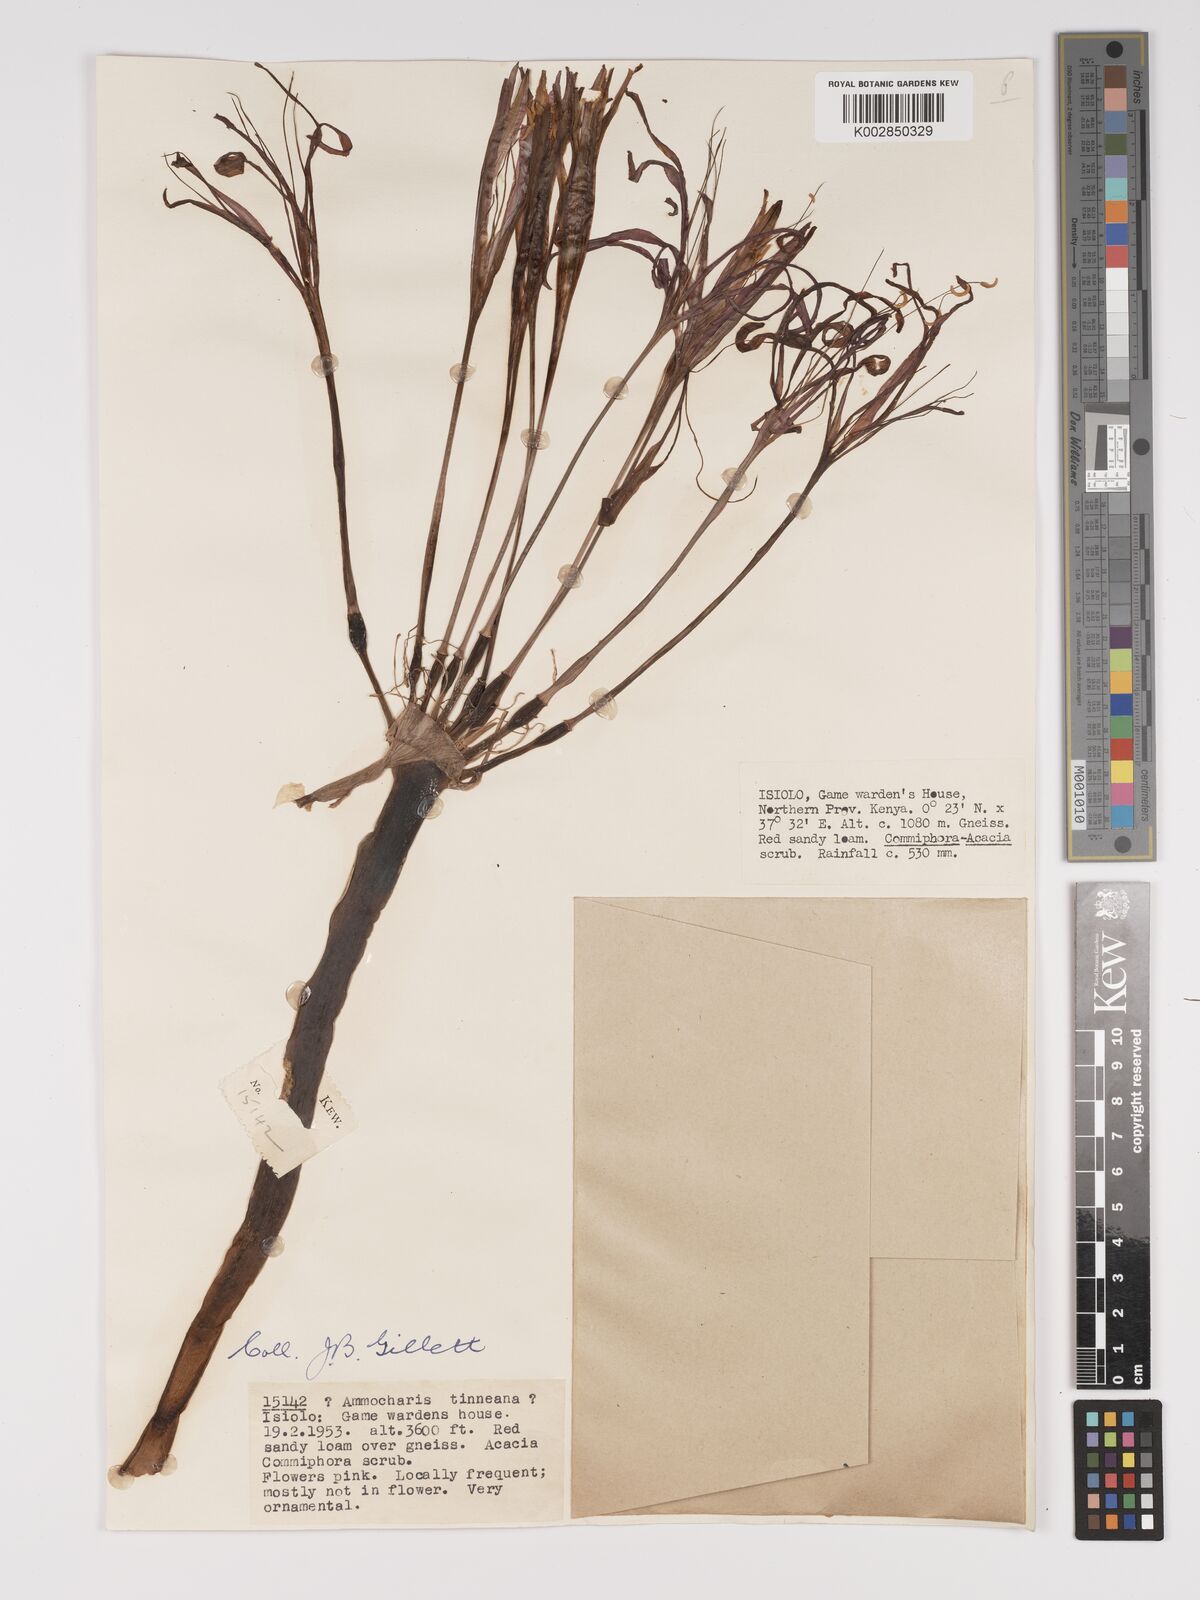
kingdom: Plantae
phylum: Tracheophyta
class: Liliopsida
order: Asparagales
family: Amaryllidaceae
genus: Ammocharis
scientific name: Ammocharis tinneana
